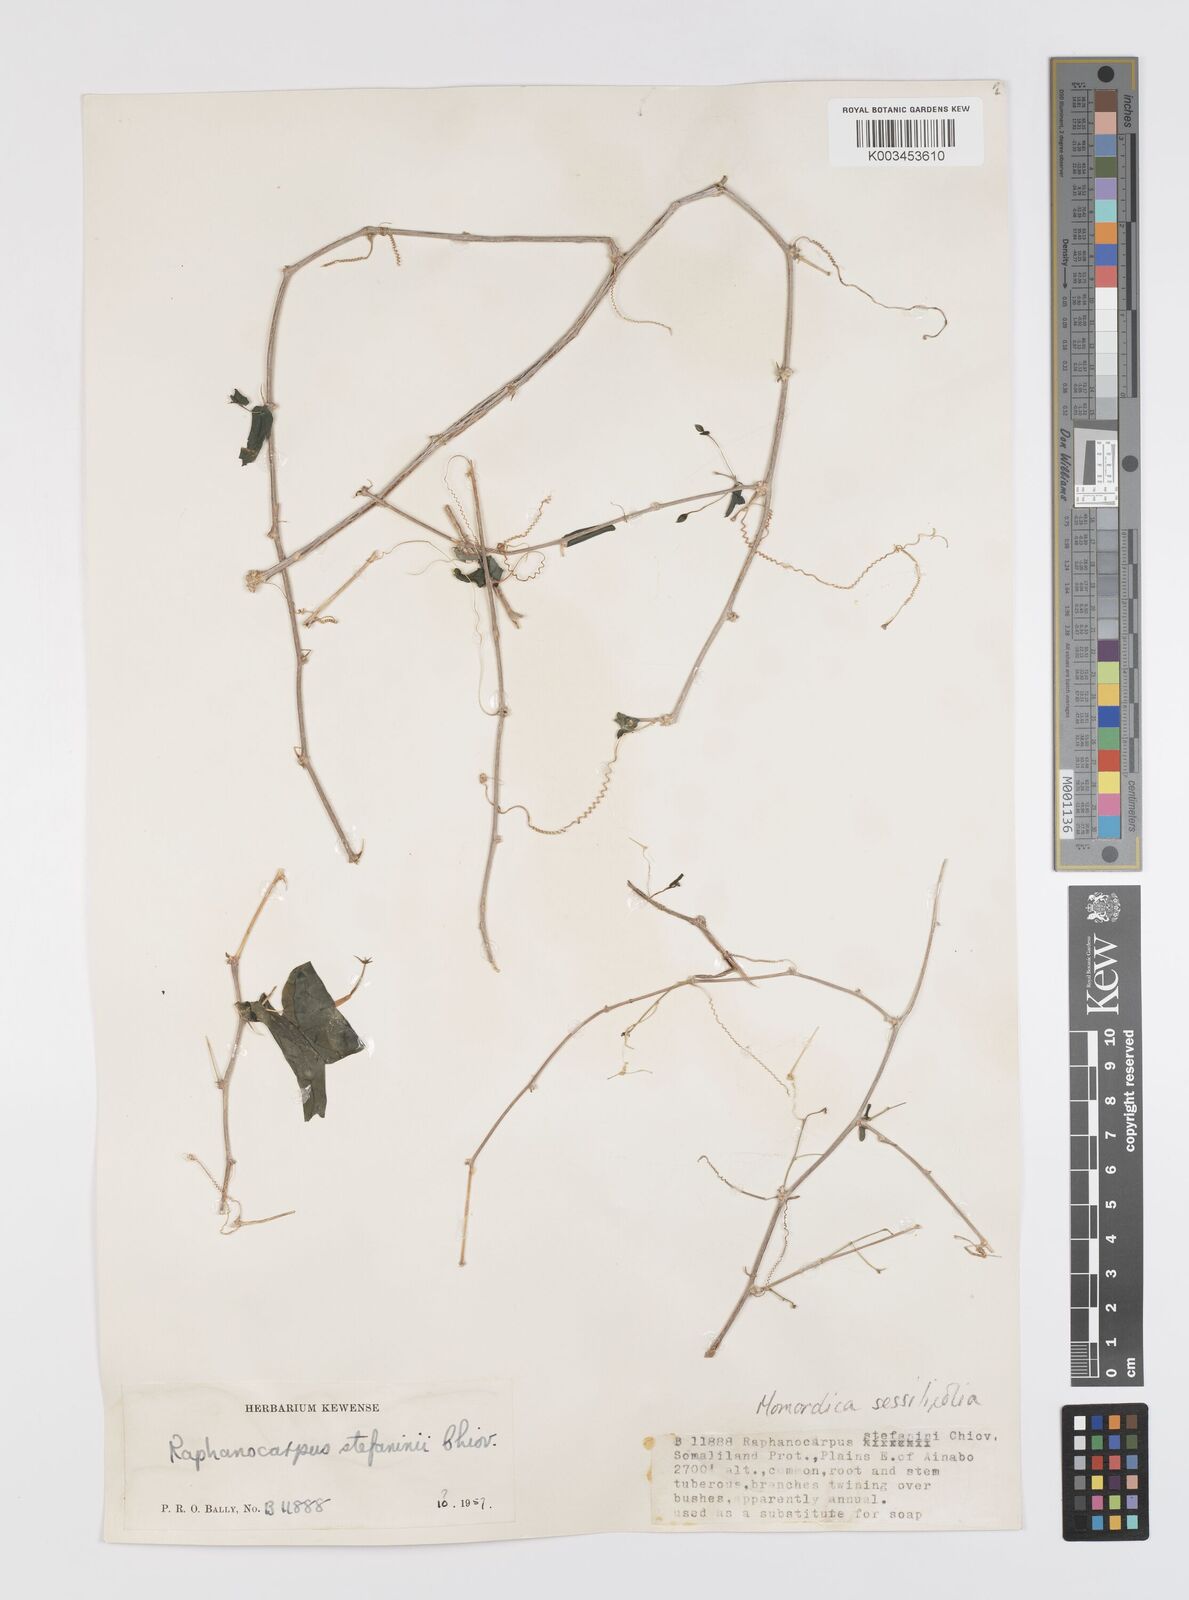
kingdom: Plantae
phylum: Tracheophyta
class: Magnoliopsida
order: Cucurbitales
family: Cucurbitaceae
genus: Momordica
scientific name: Momordica sessilifolia
